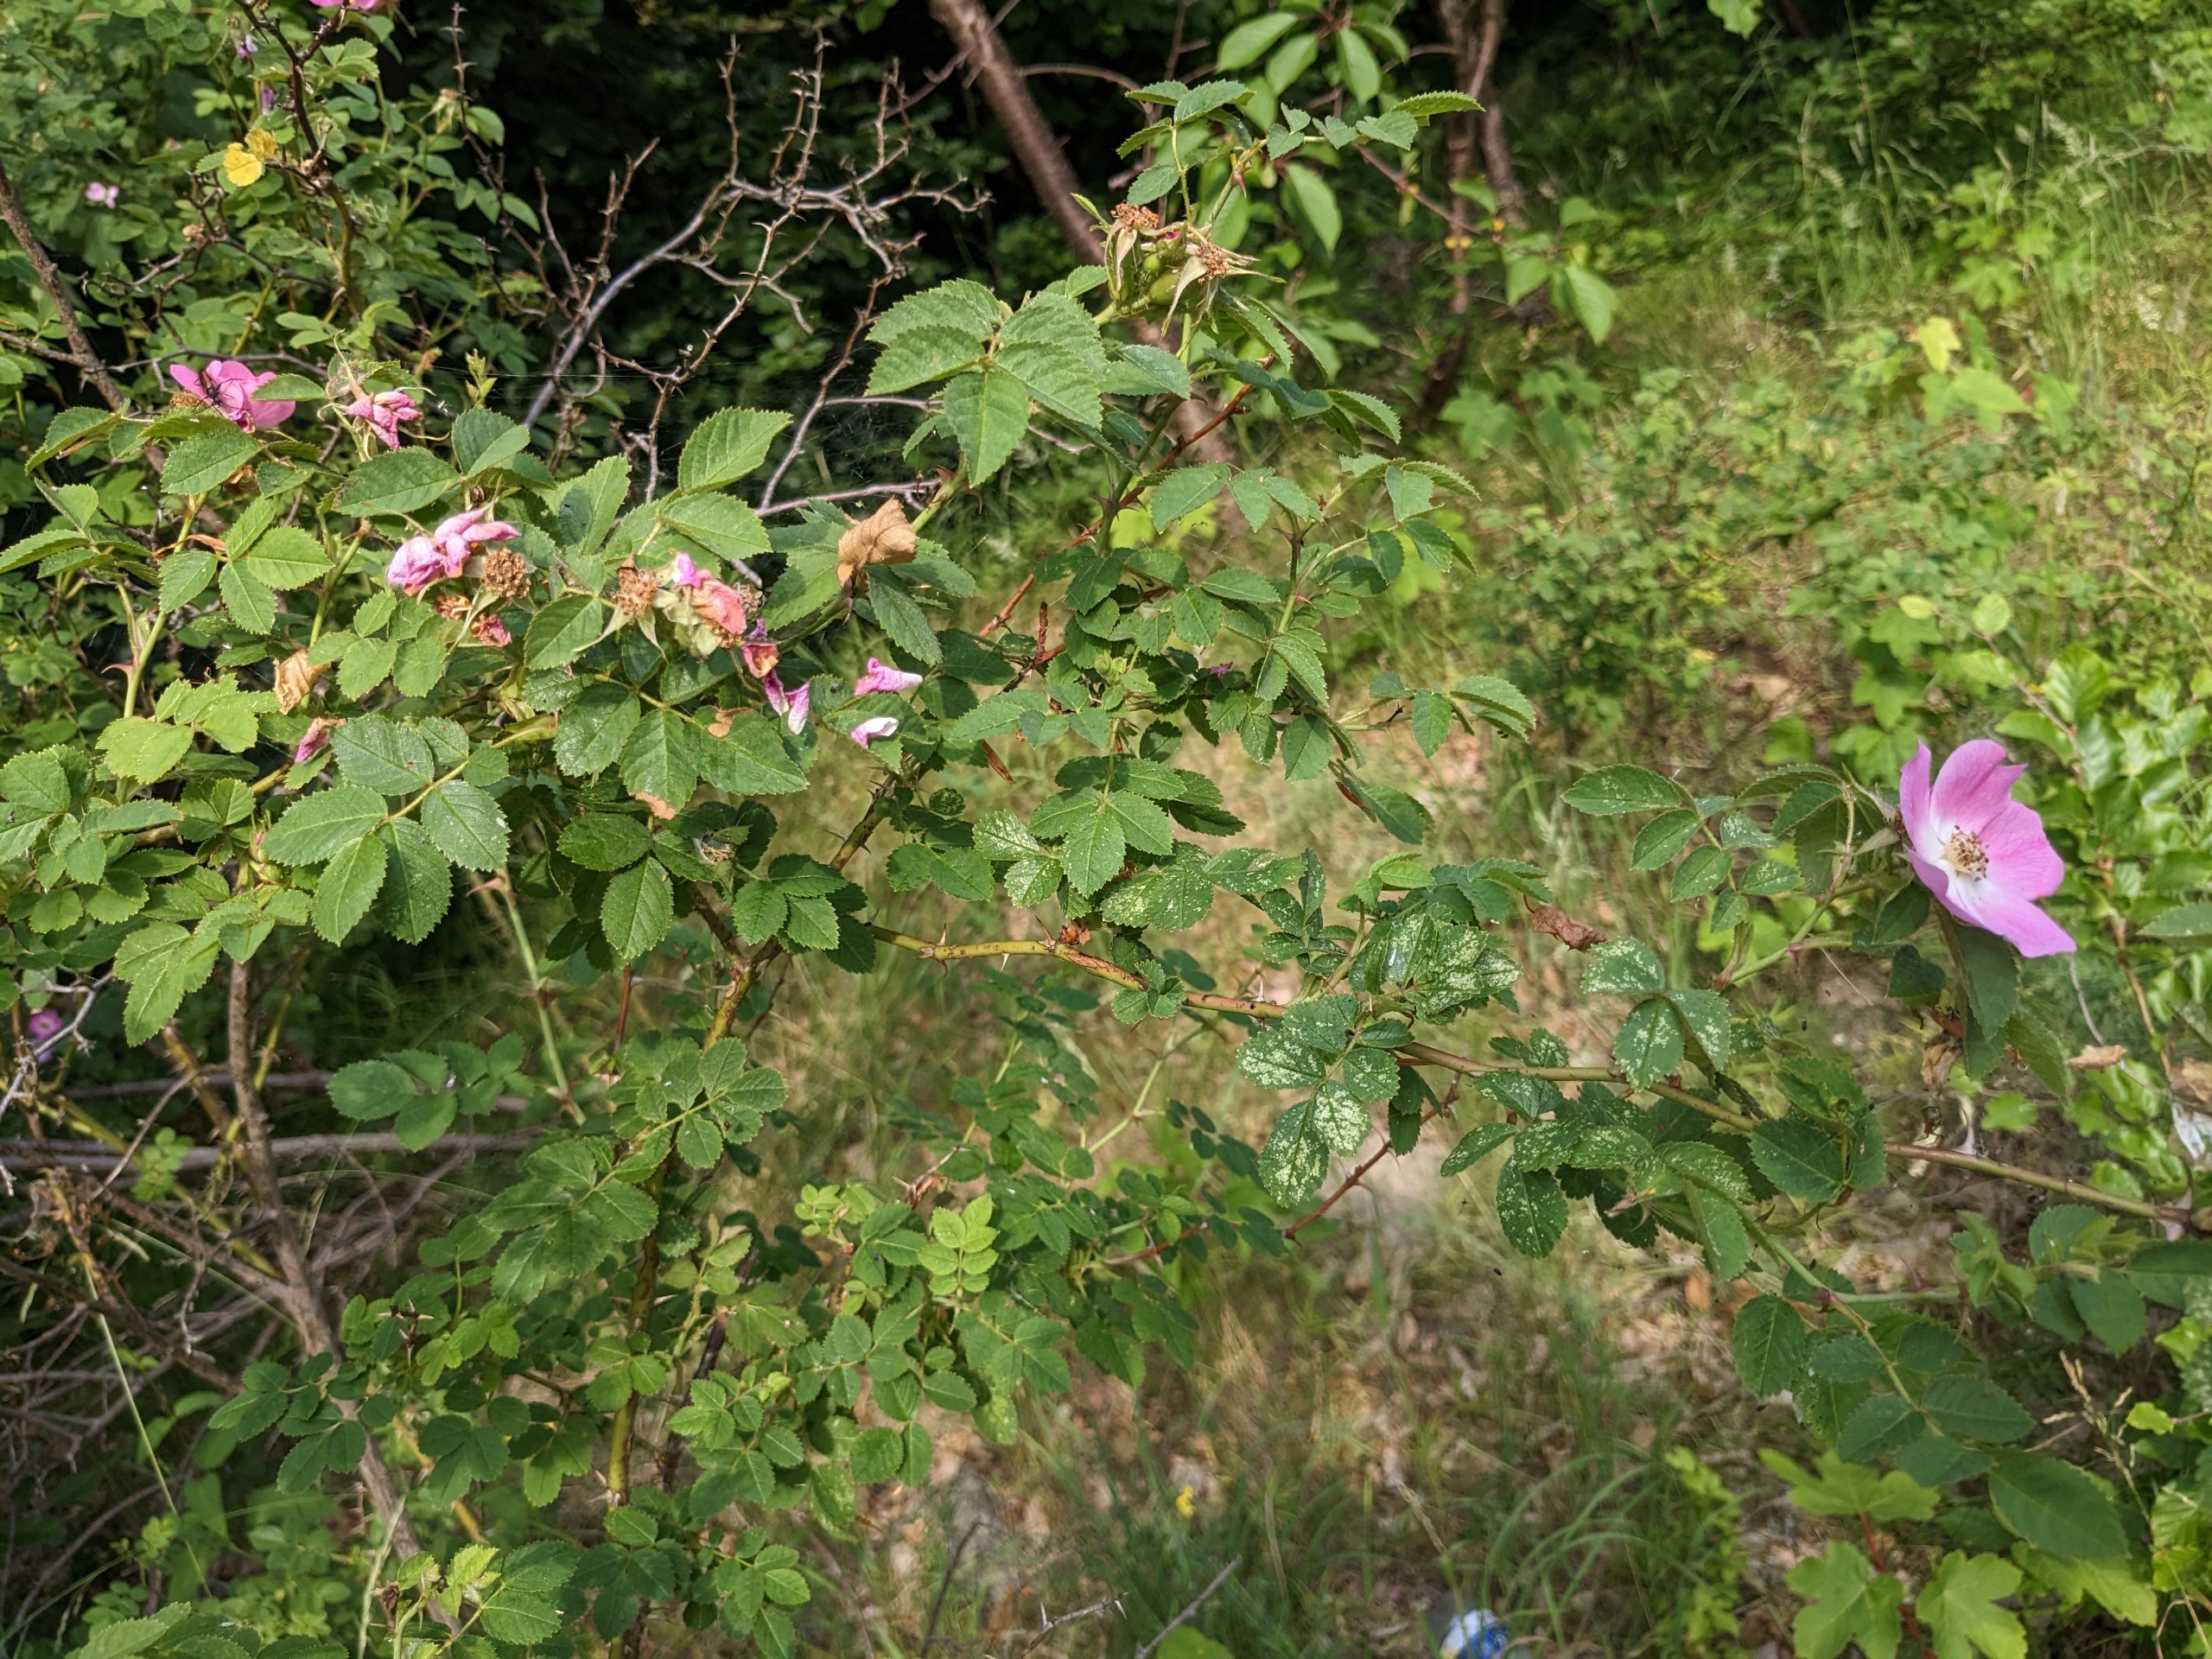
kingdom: Plantae
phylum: Tracheophyta
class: Magnoliopsida
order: Rosales
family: Rosaceae
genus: Rosa
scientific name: Rosa rubiginosa
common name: Æble-rose
